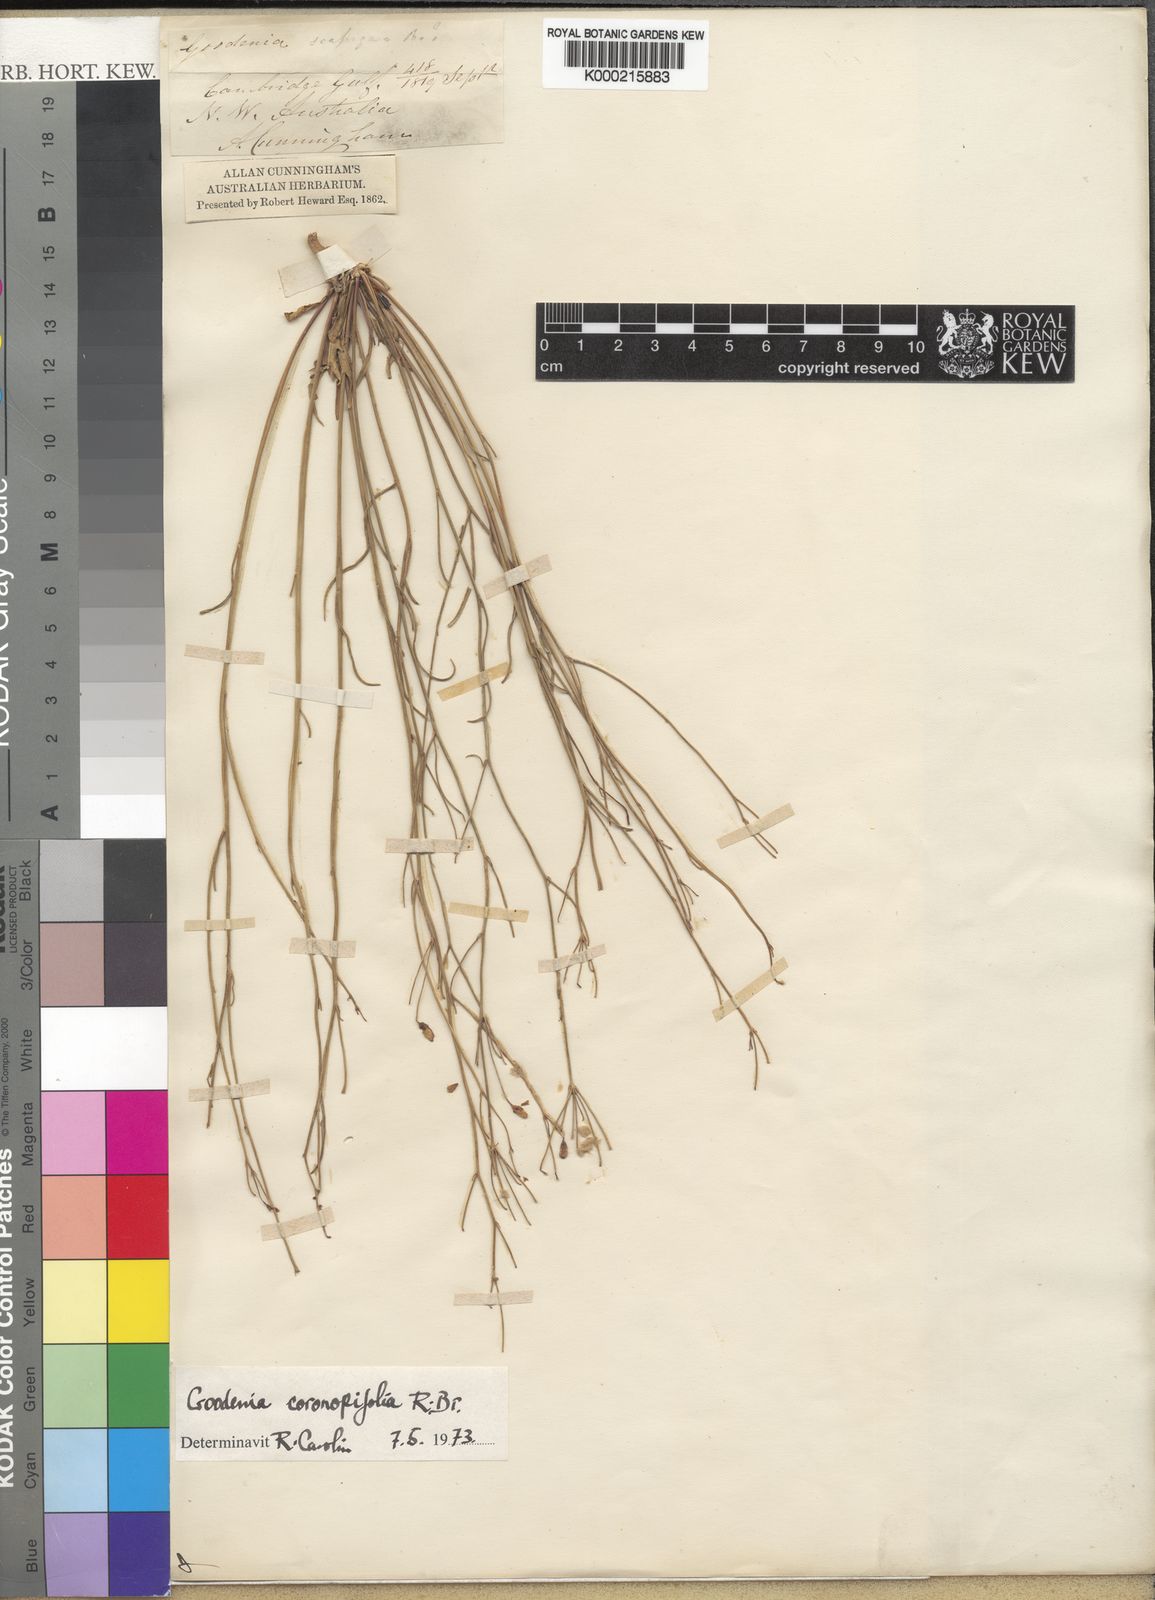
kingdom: Plantae
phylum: Tracheophyta
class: Magnoliopsida
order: Asterales
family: Goodeniaceae
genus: Goodenia
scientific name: Goodenia coronopifolia
